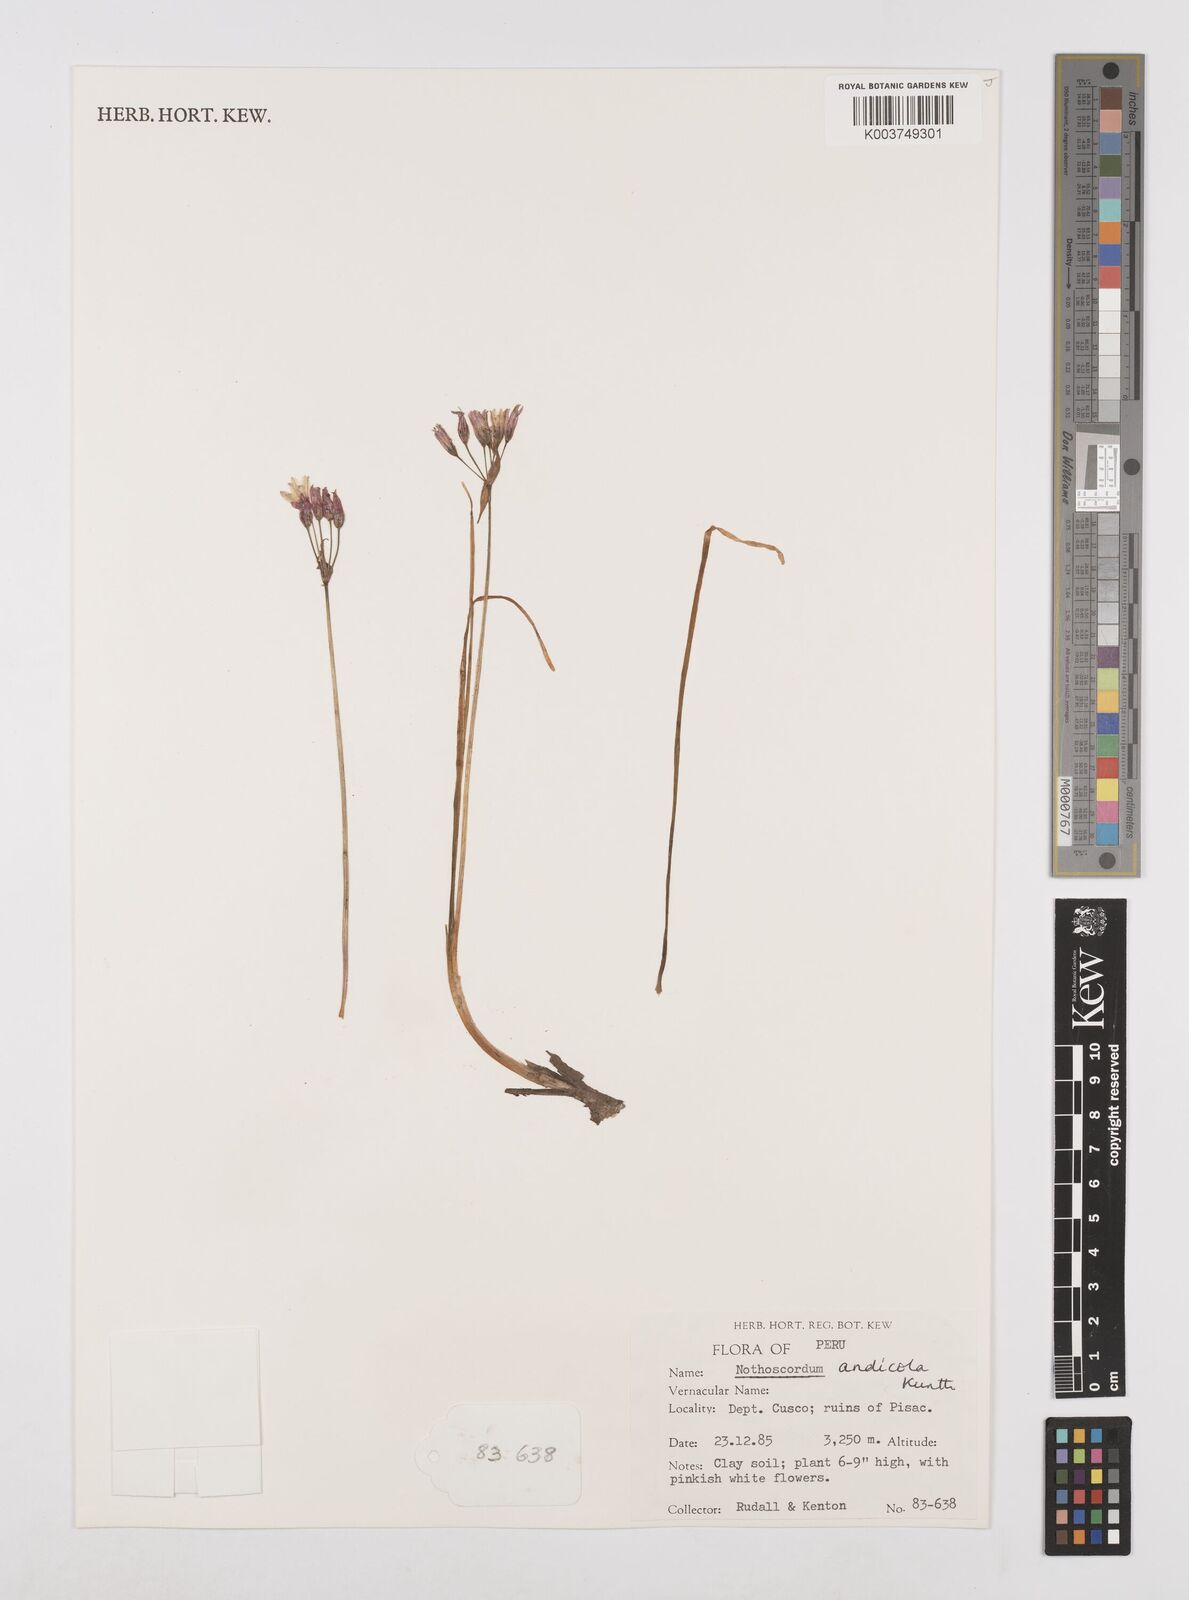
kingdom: Plantae
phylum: Tracheophyta
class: Liliopsida
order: Asparagales
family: Amaryllidaceae
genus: Nothoscordum
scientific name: Nothoscordum andicola
